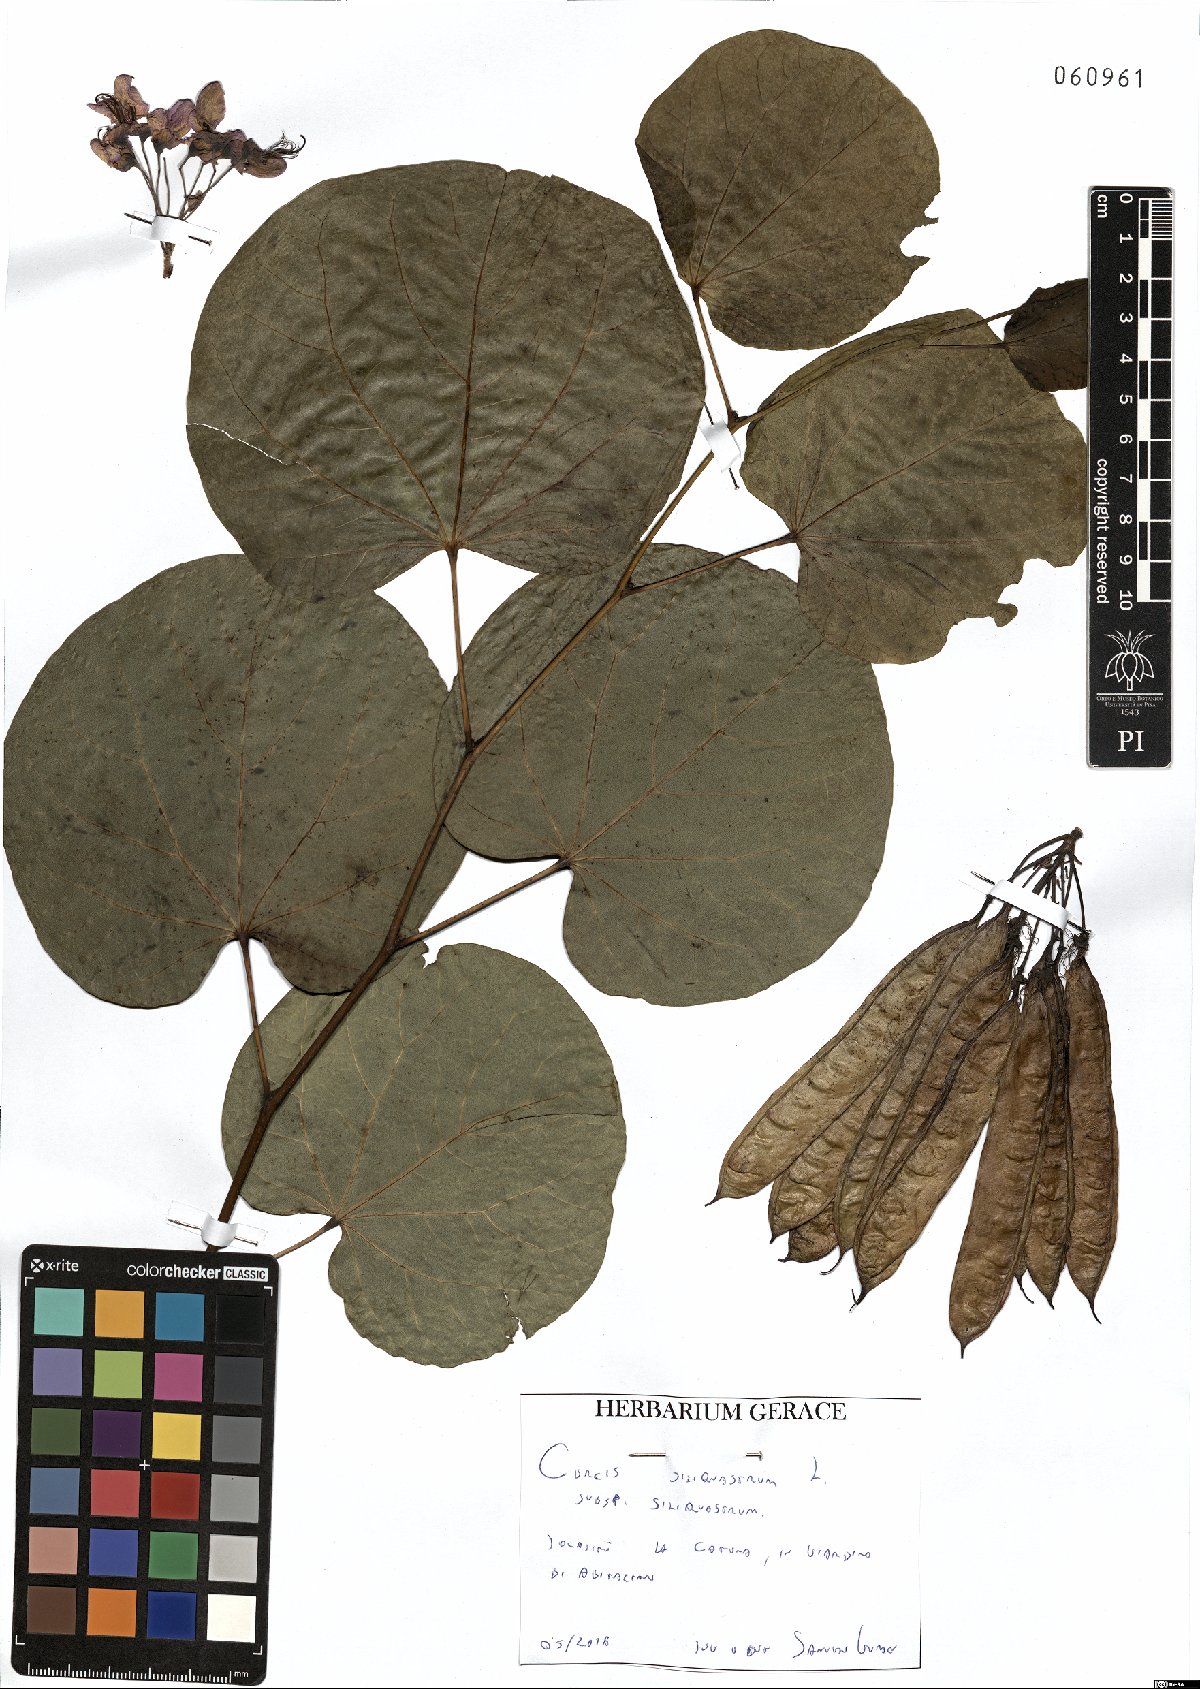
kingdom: Plantae
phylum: Tracheophyta
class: Magnoliopsida
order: Fabales
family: Fabaceae
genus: Cercis
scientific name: Cercis siliquastrum
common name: Judas tree
